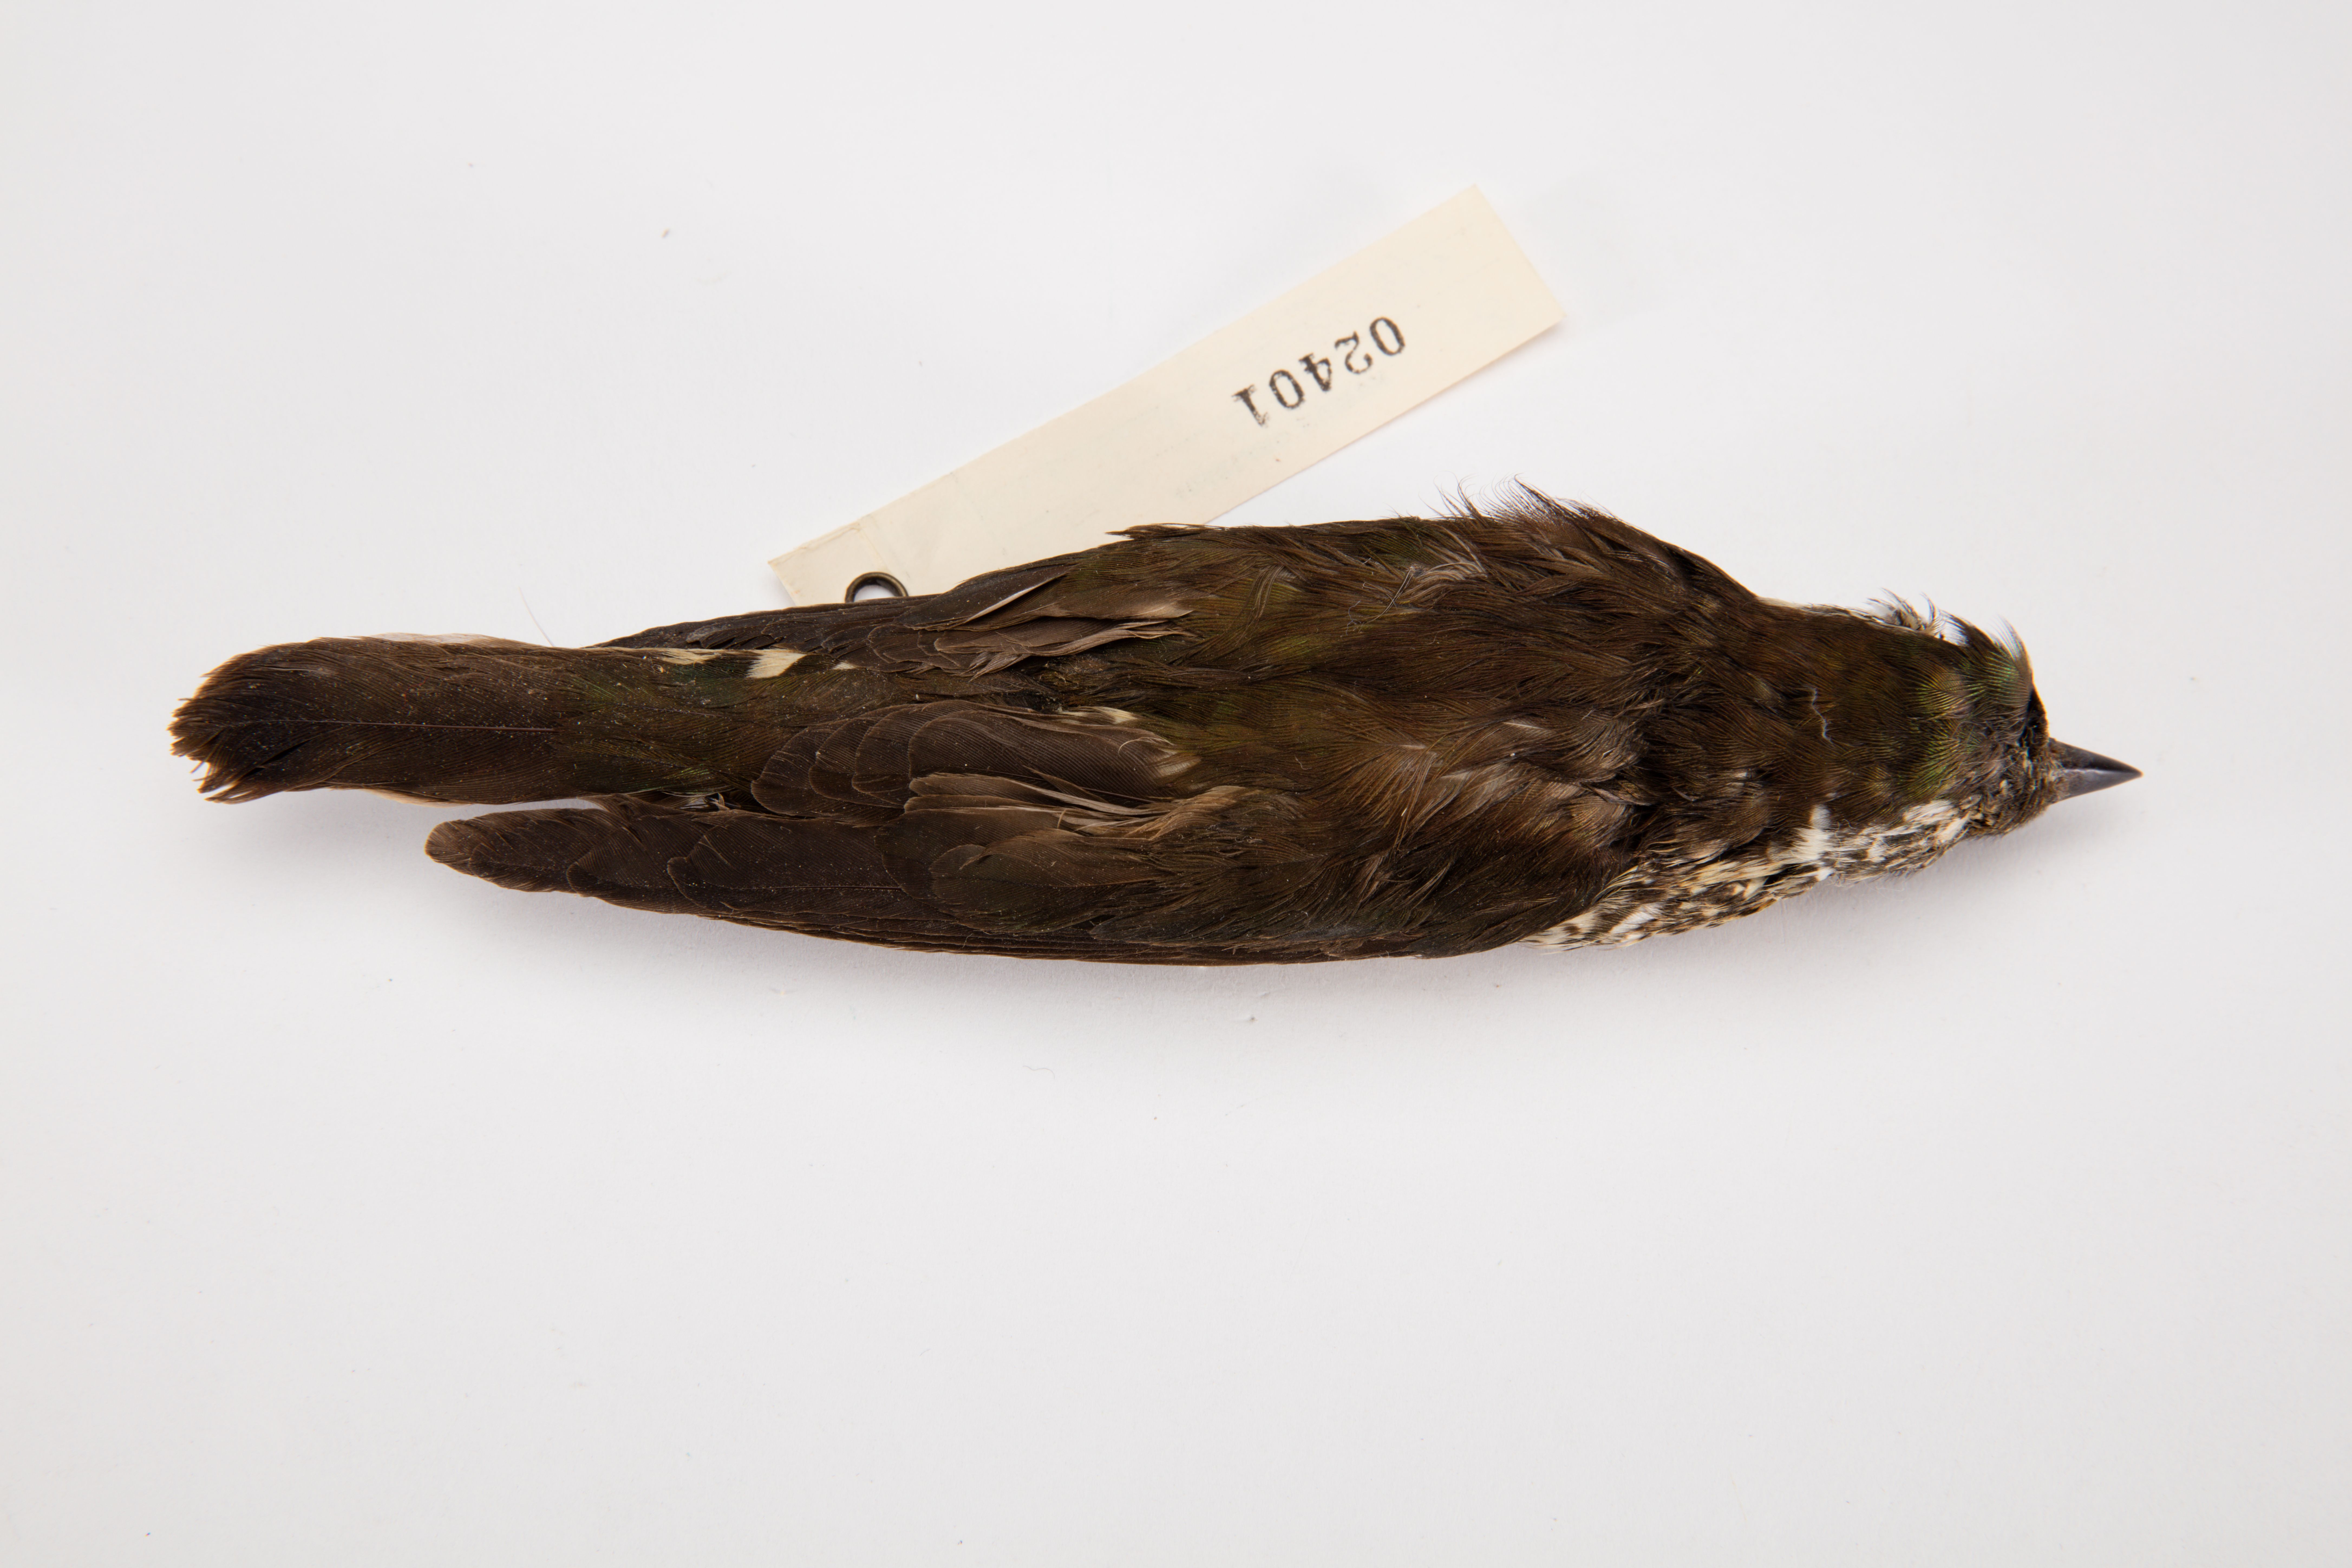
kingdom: Animalia
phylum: Chordata
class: Aves
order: Cuculiformes
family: Cuculidae
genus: Chrysococcyx
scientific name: Chrysococcyx lucidus
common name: Shining bronze cuckoo
